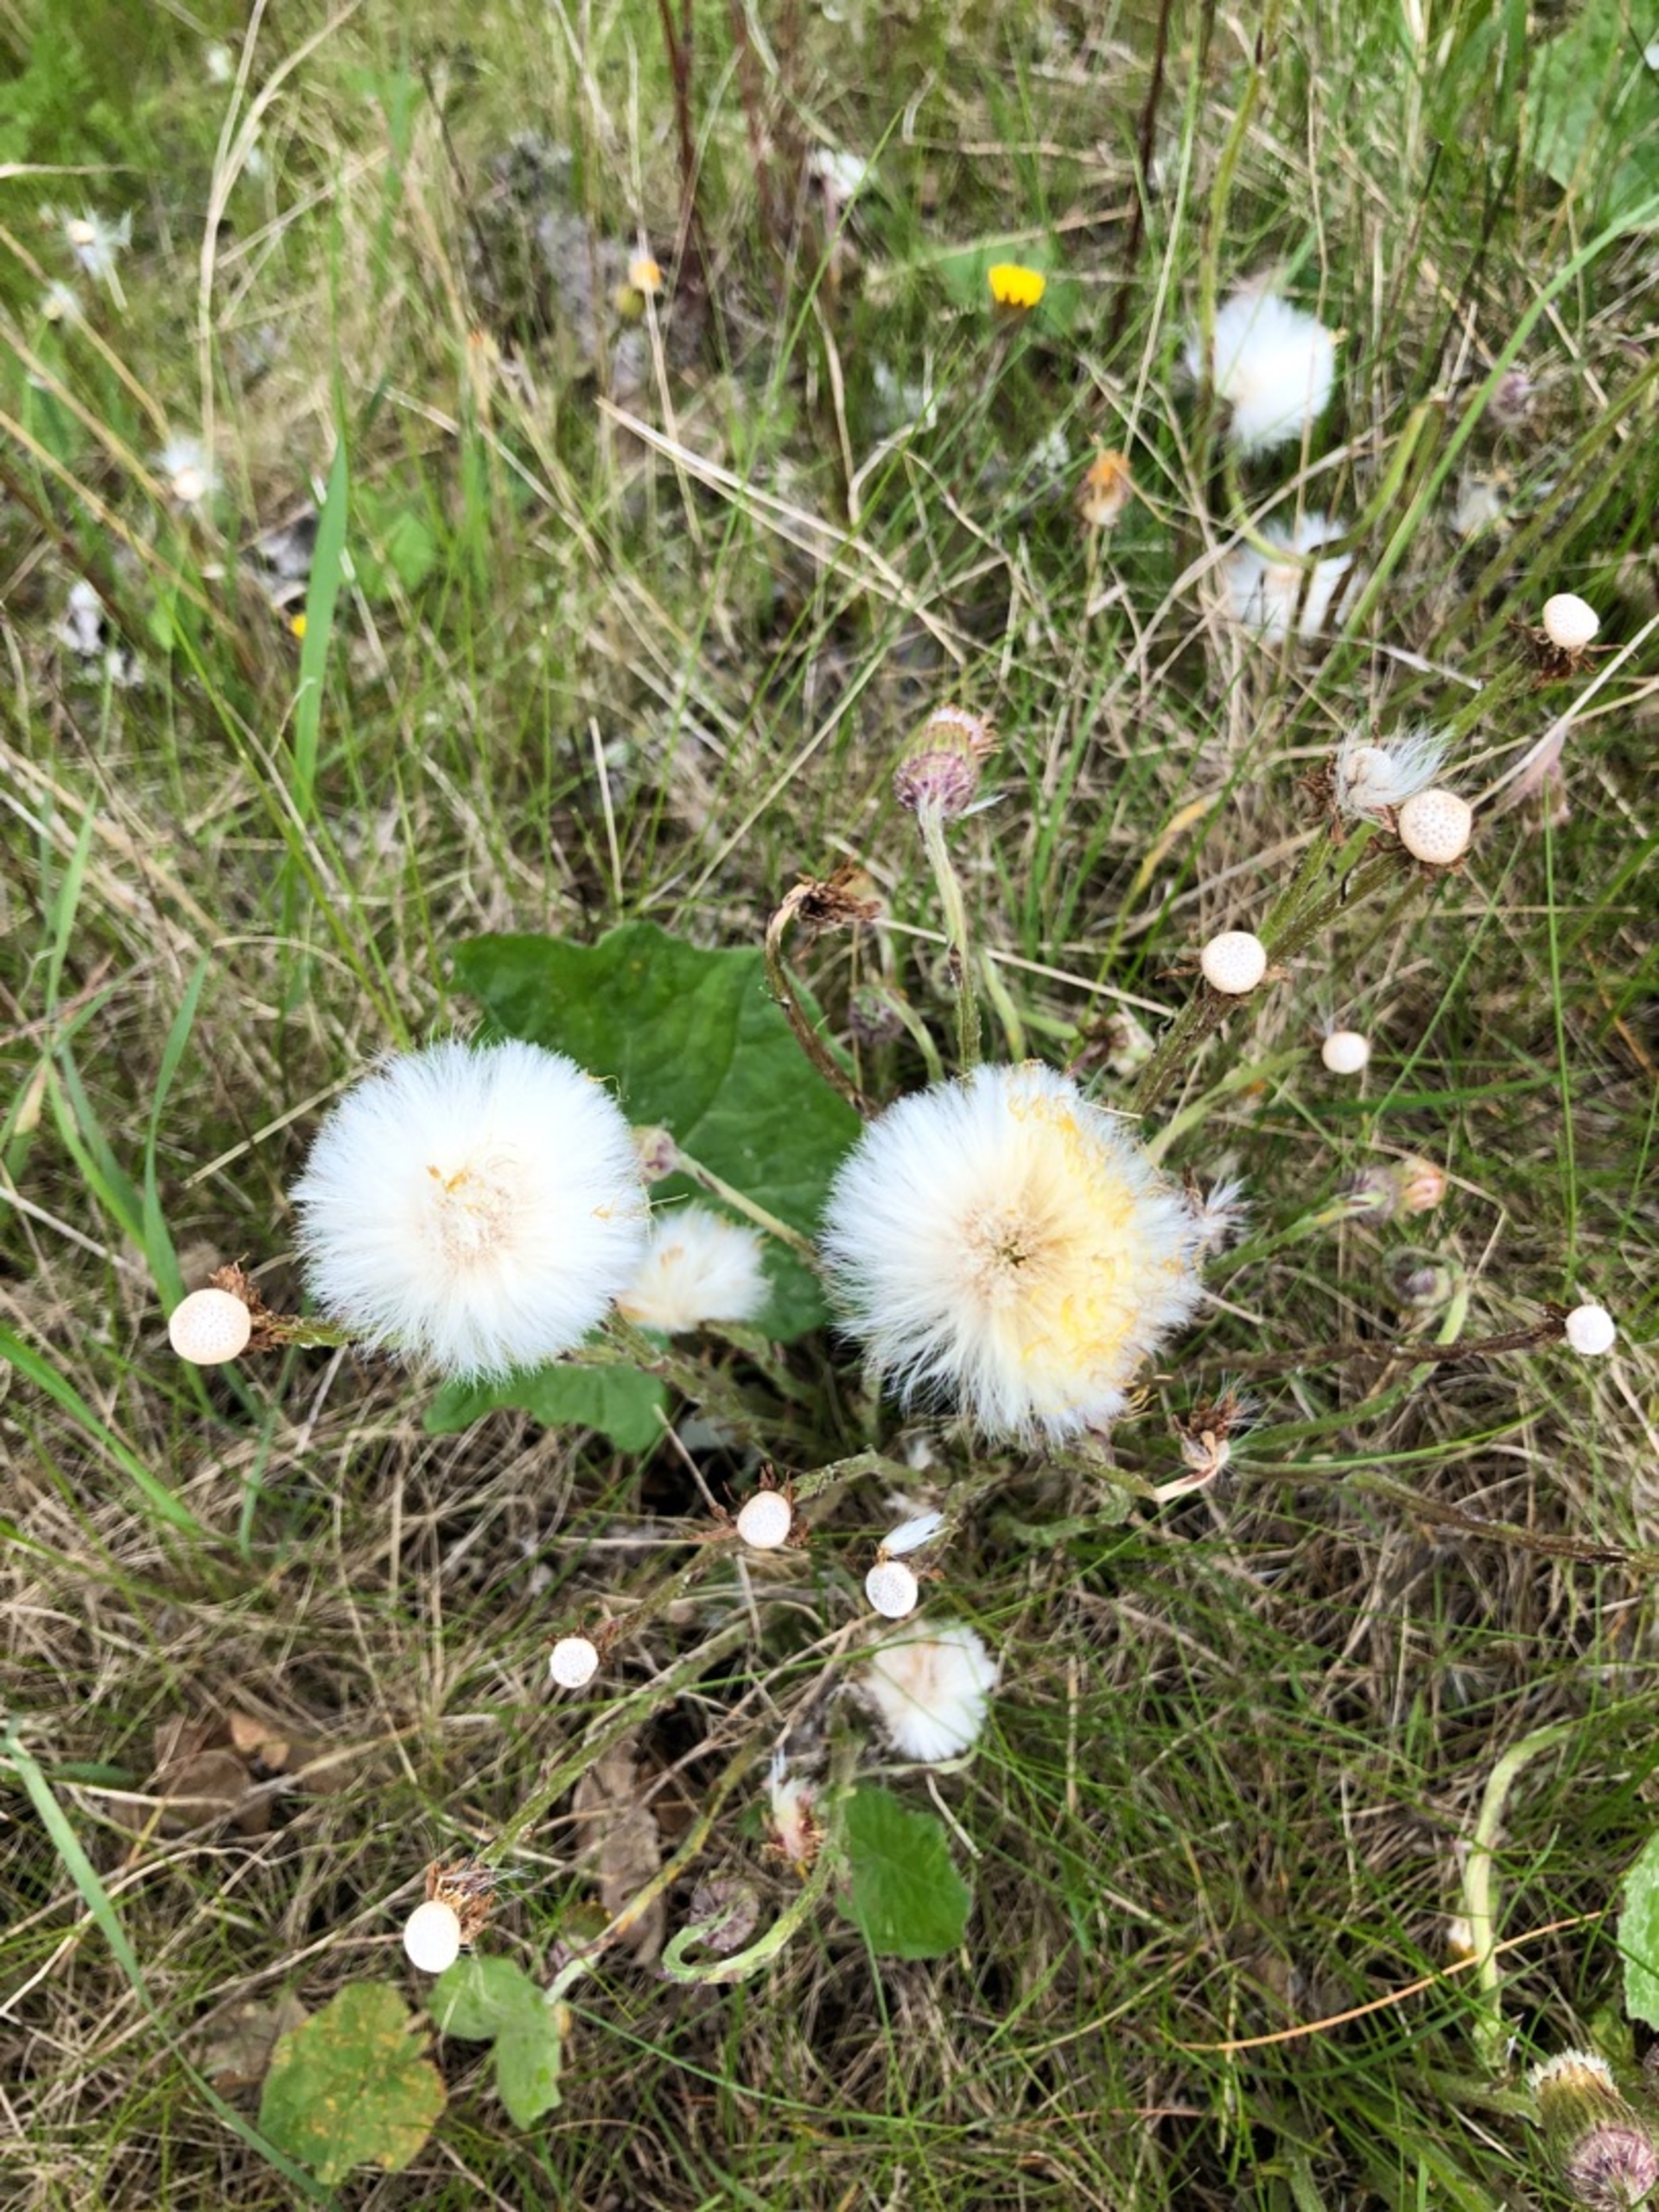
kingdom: Plantae
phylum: Tracheophyta
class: Magnoliopsida
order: Asterales
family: Asteraceae
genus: Tussilago
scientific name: Tussilago farfara
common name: Følfod
